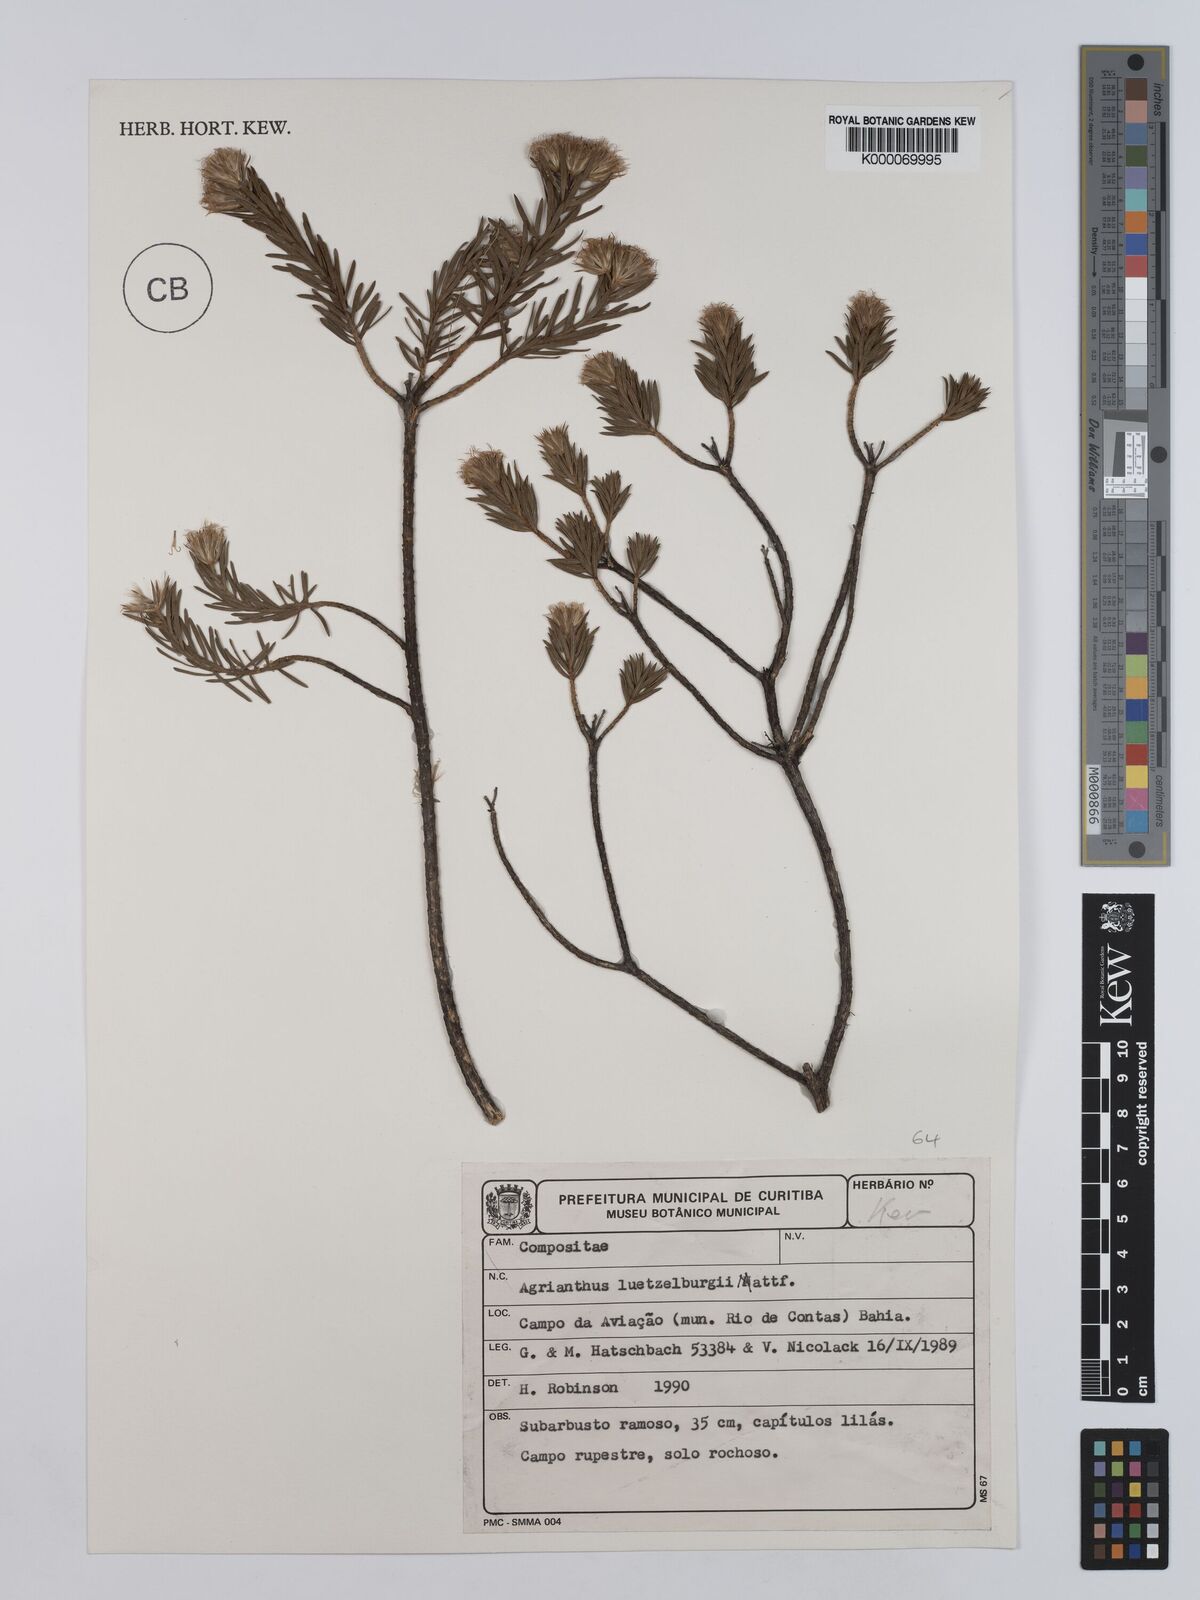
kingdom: Plantae
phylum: Tracheophyta
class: Magnoliopsida
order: Asterales
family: Asteraceae
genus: Agrianthus
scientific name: Agrianthus
